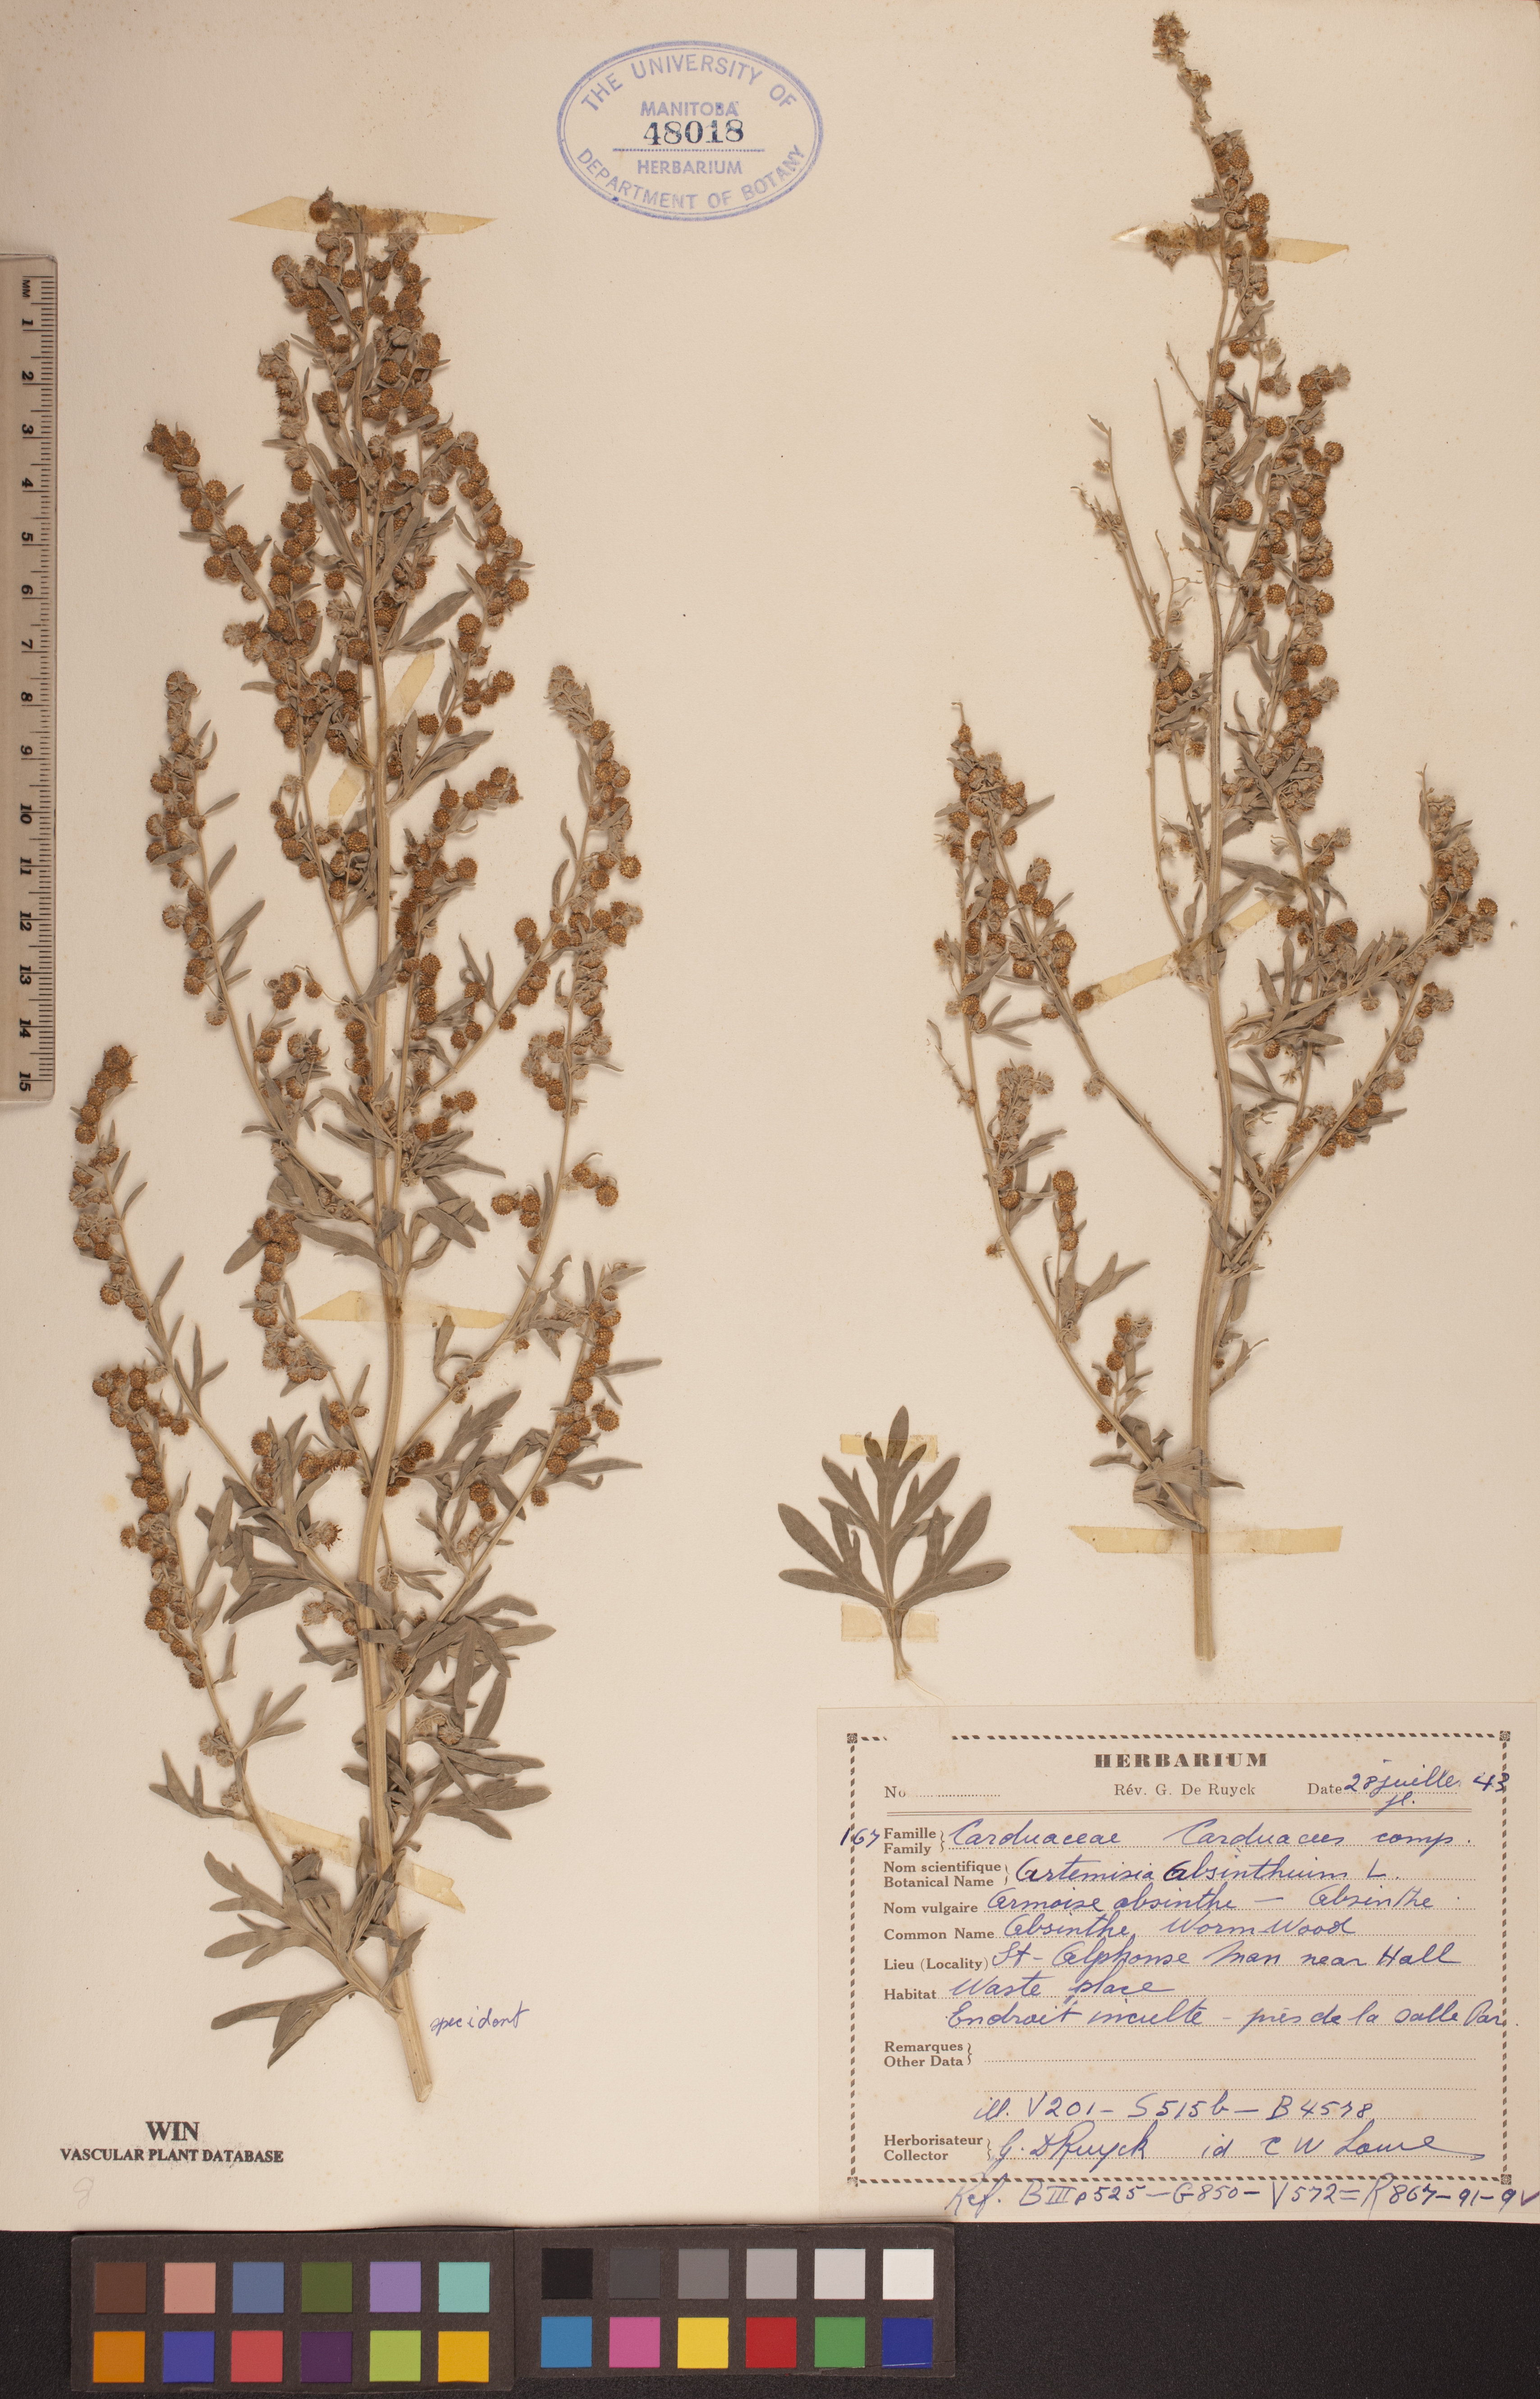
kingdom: Plantae
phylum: Tracheophyta
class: Magnoliopsida
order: Asterales
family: Asteraceae
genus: Artemisia
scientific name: Artemisia absinthium
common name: Wormwood
